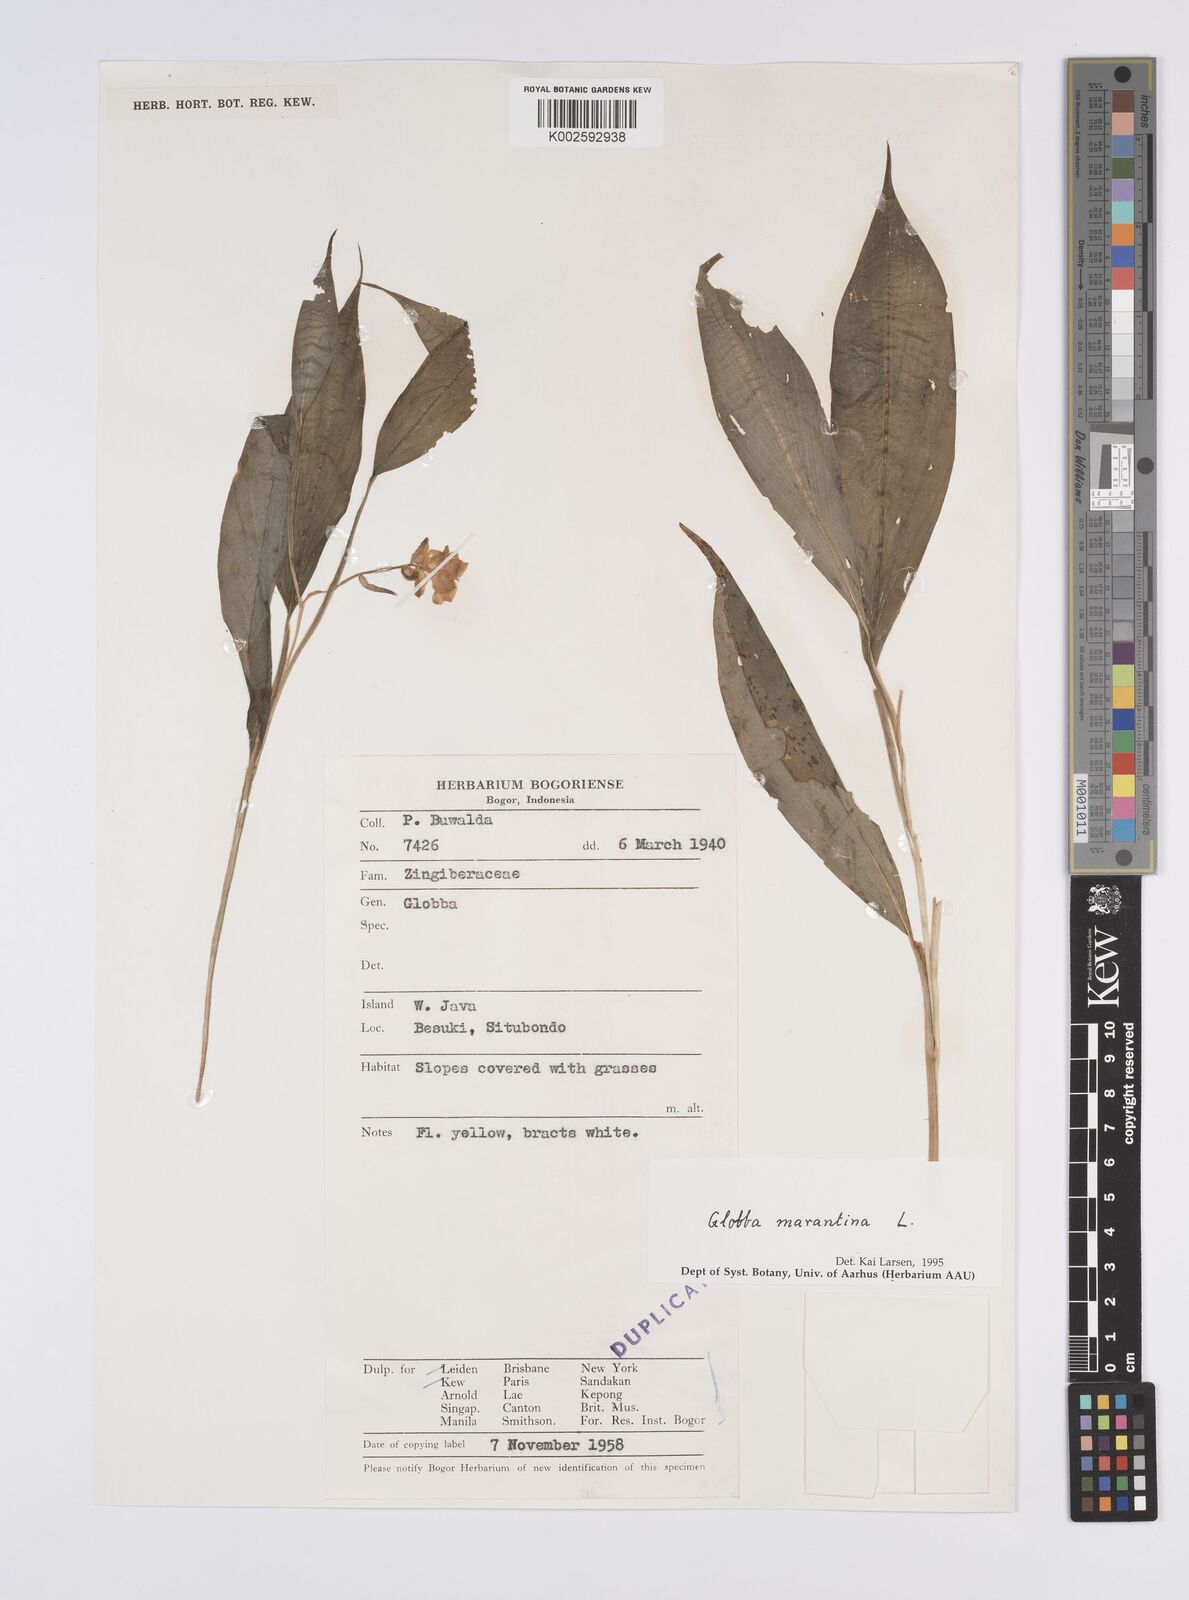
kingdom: Plantae
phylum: Tracheophyta
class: Liliopsida
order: Zingiberales
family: Zingiberaceae
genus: Globba
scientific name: Globba marantina
